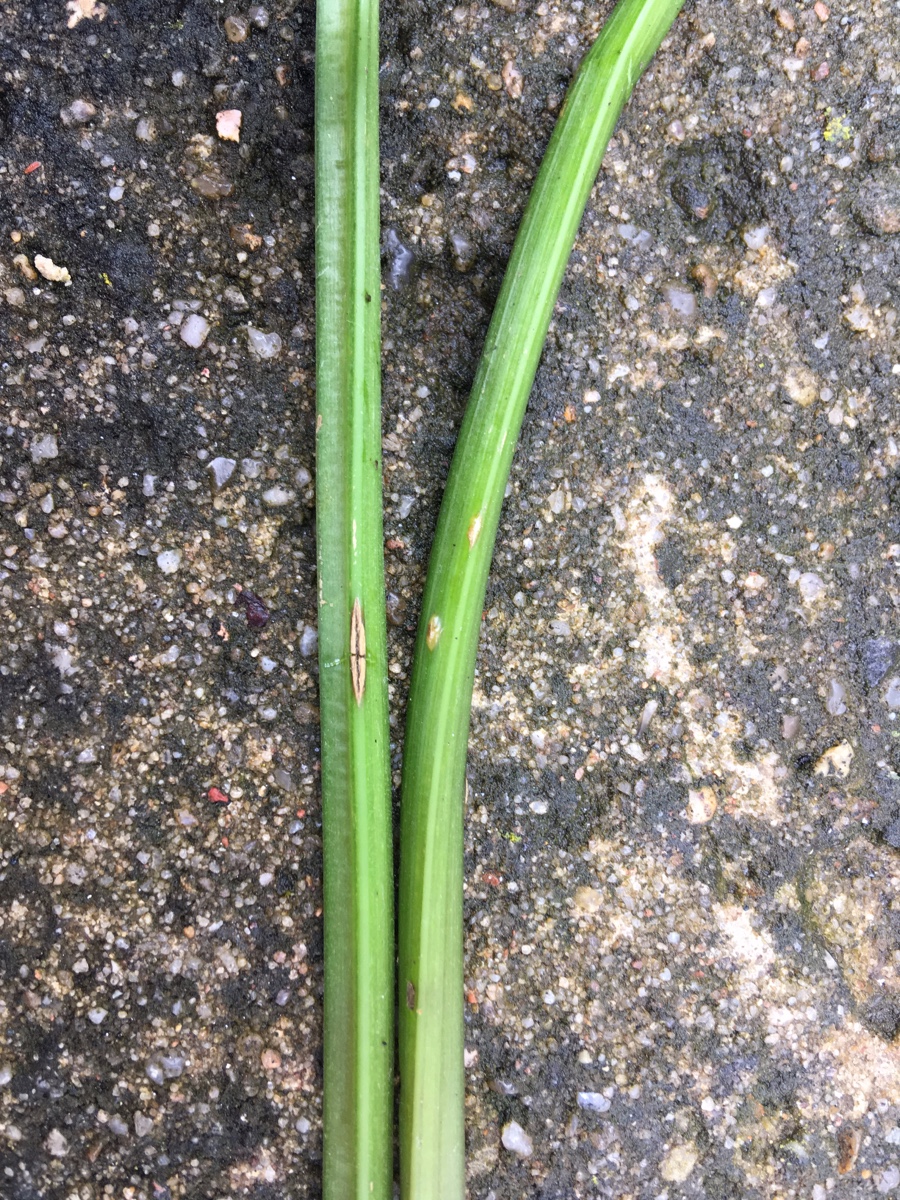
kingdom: Fungi
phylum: Ascomycota
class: Taphrinomycetes
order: Taphrinales
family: Taphrinaceae
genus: Protomyces
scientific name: Protomyces macrosporus
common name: skvalderkål-vablesæk
